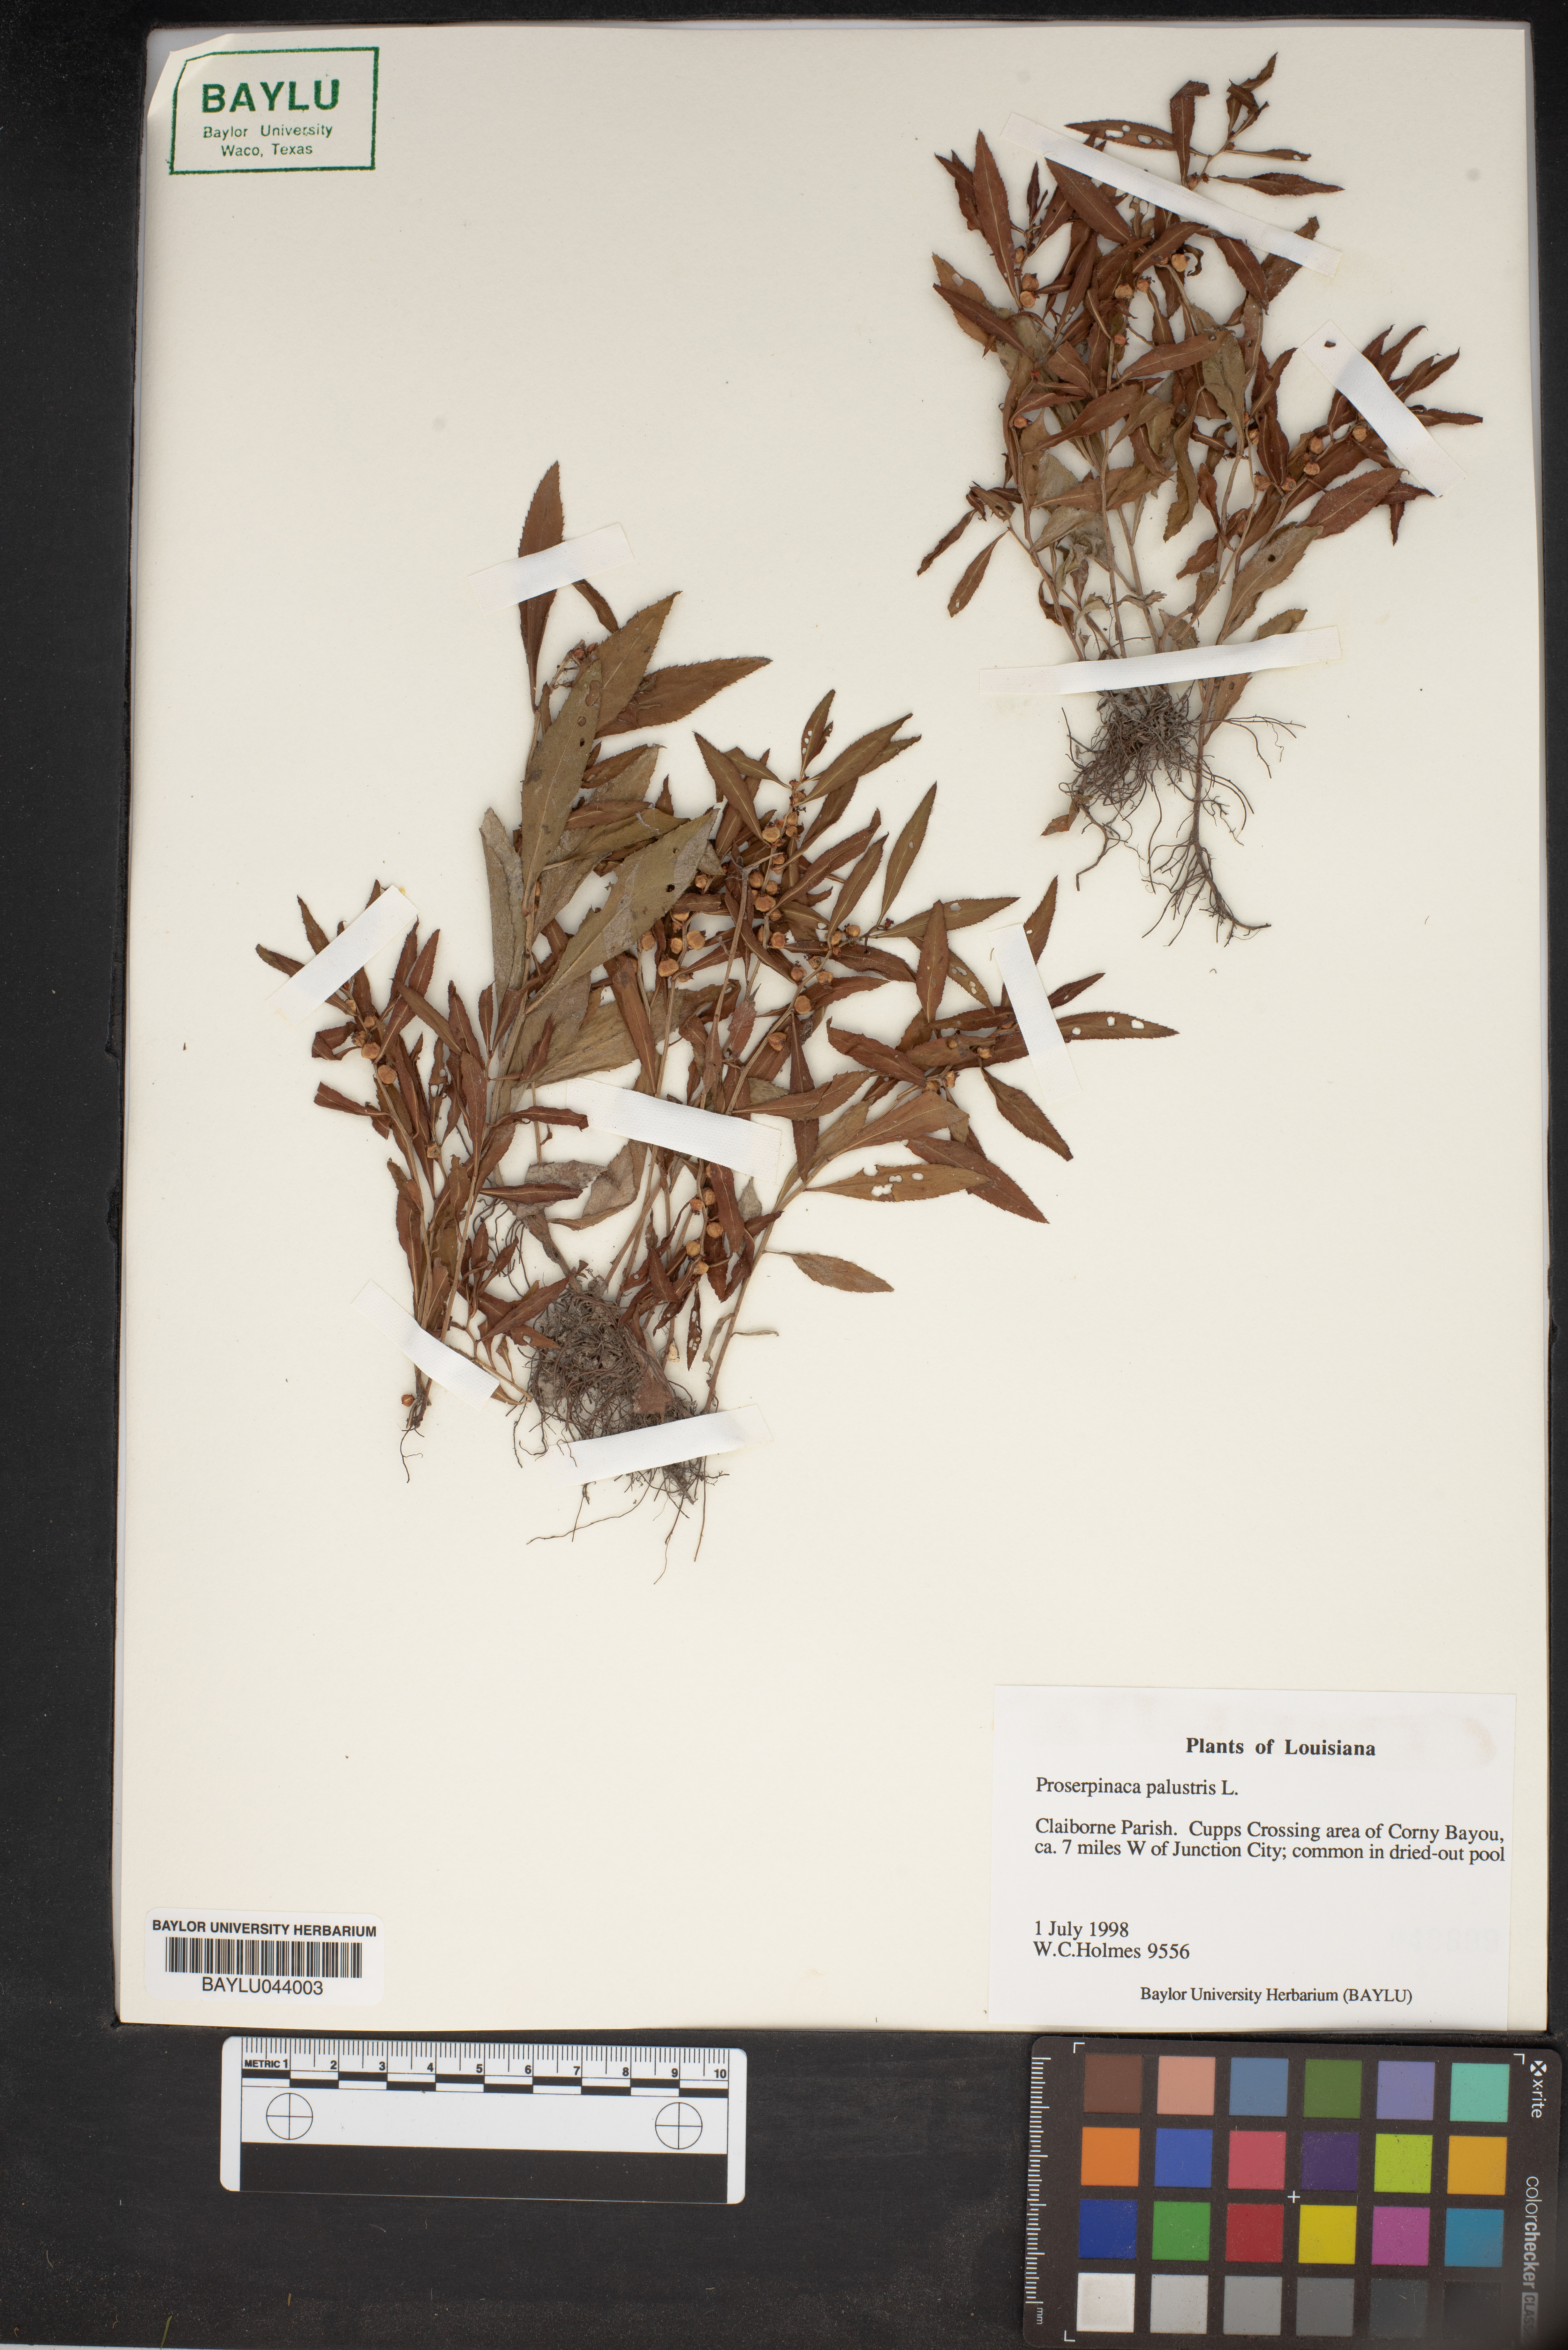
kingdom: Plantae
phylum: Tracheophyta
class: Magnoliopsida
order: Saxifragales
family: Haloragaceae
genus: Proserpinaca
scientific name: Proserpinaca palustris
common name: Marsh mermaidweed
